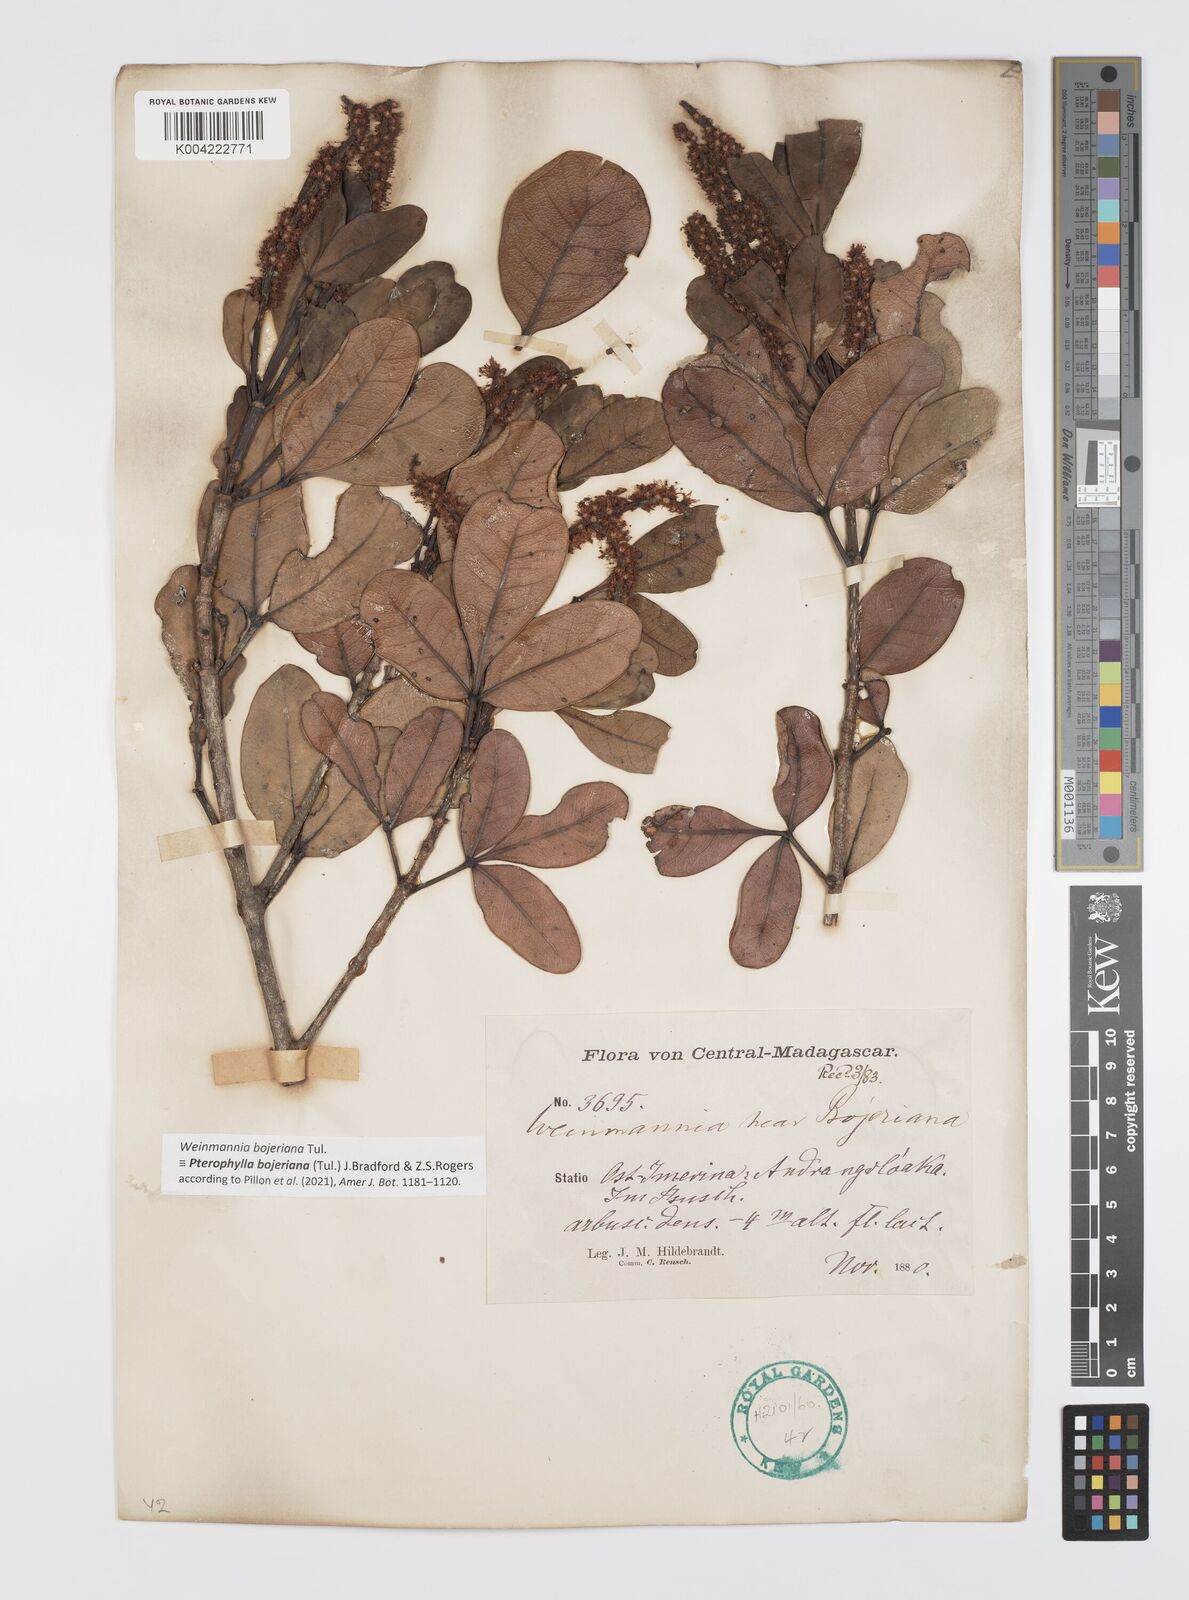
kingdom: Plantae
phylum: Tracheophyta
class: Magnoliopsida
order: Oxalidales
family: Cunoniaceae
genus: Pterophylla
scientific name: Pterophylla
